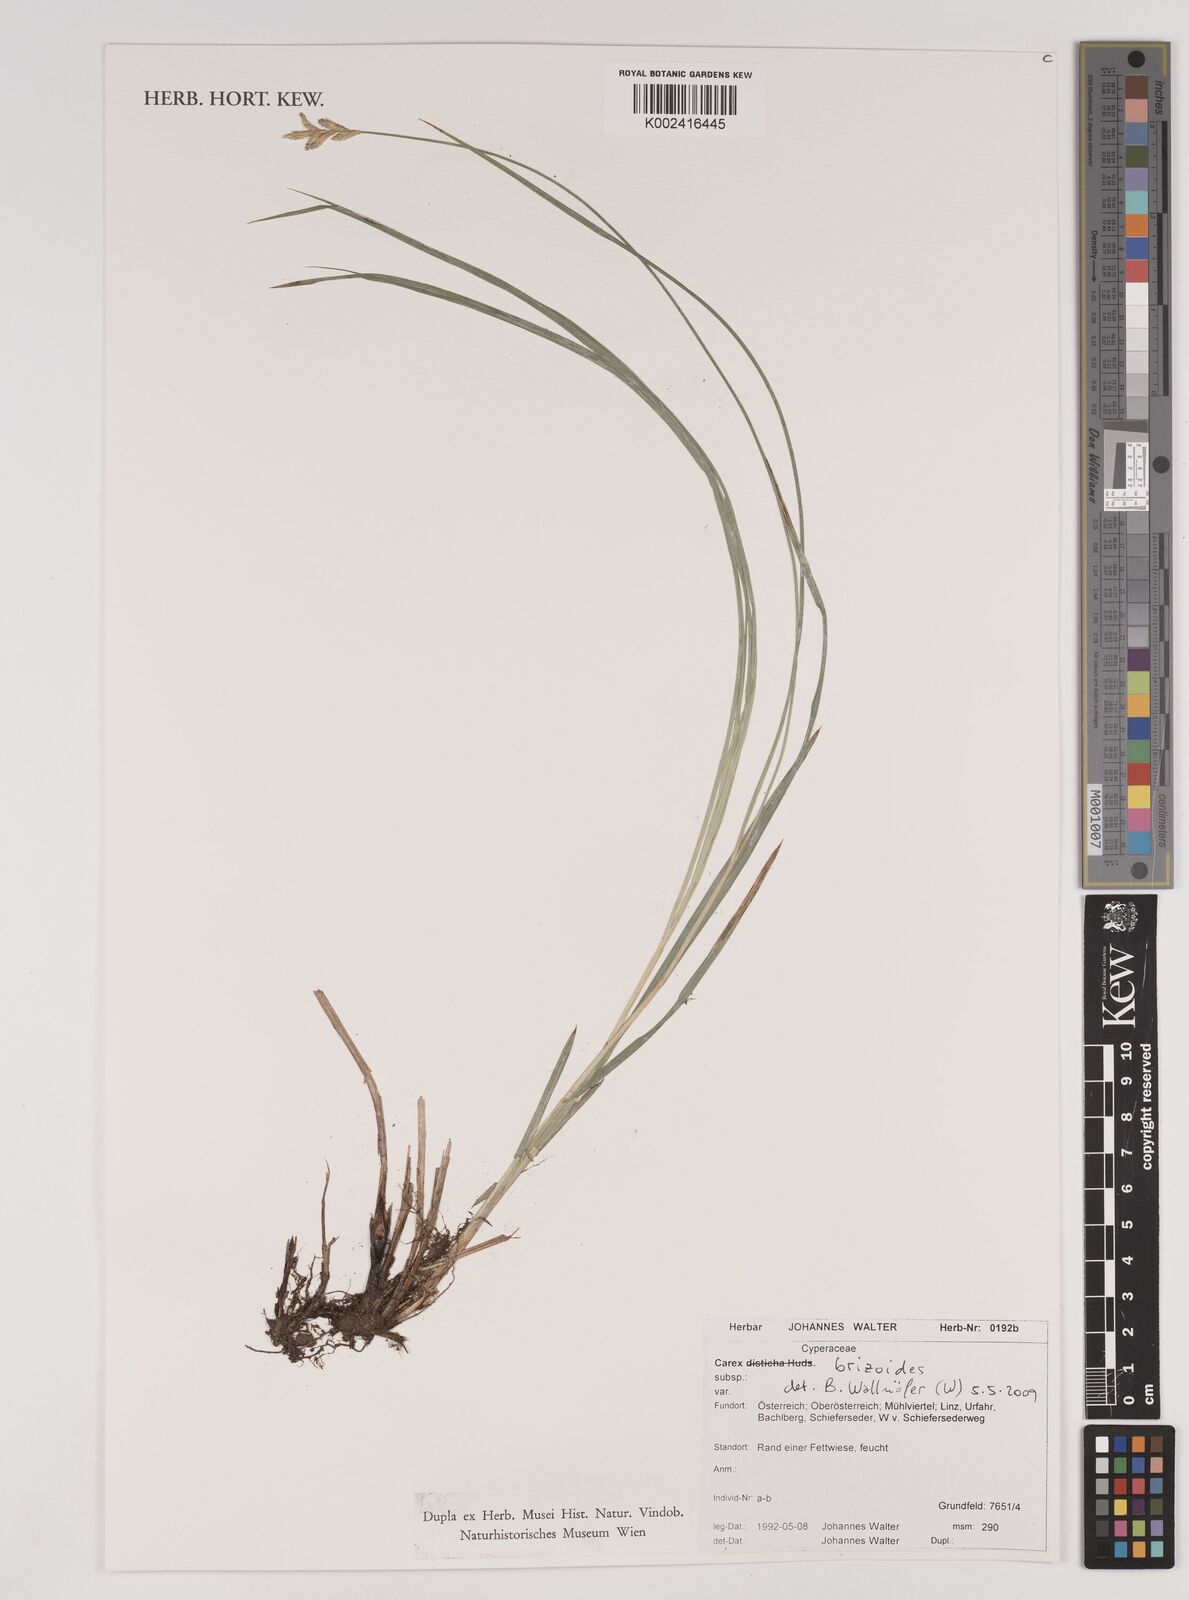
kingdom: Plantae
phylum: Tracheophyta
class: Liliopsida
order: Poales
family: Cyperaceae
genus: Carex
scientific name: Carex brizoides
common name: Quaking-grass sedge
